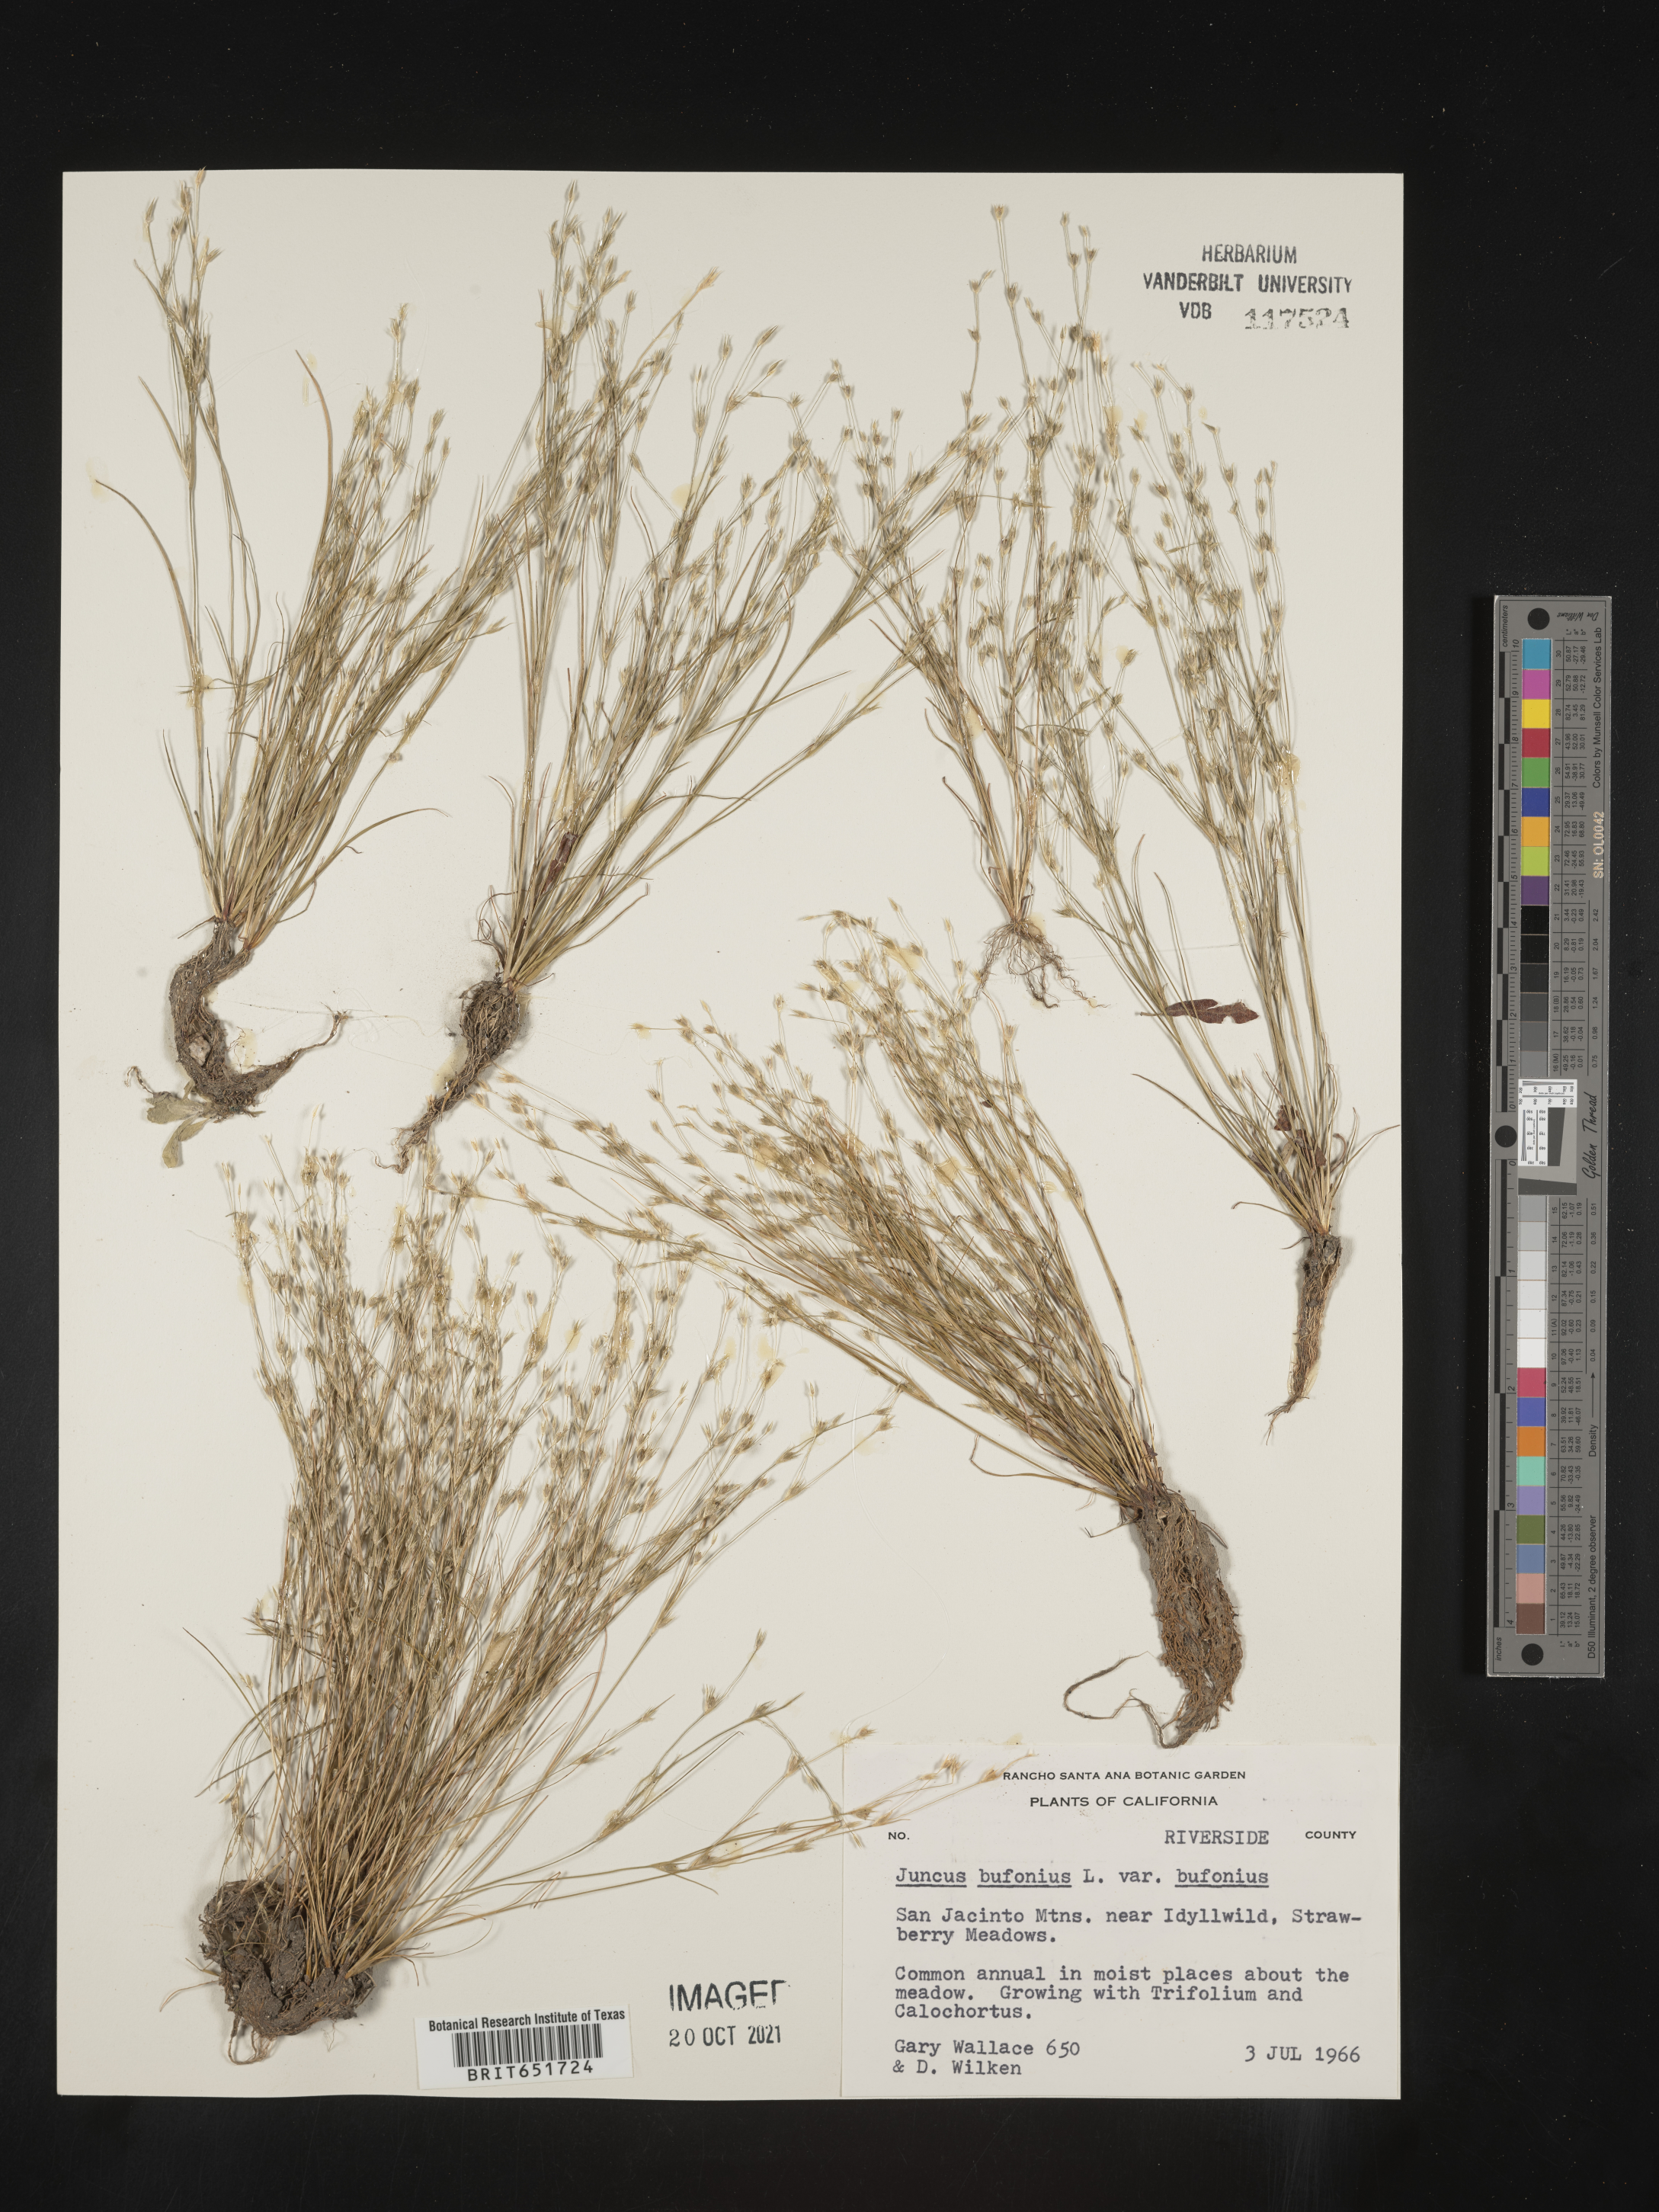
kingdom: Plantae
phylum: Tracheophyta
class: Liliopsida
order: Poales
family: Juncaceae
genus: Juncus
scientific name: Juncus bufonius
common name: Toad rush
